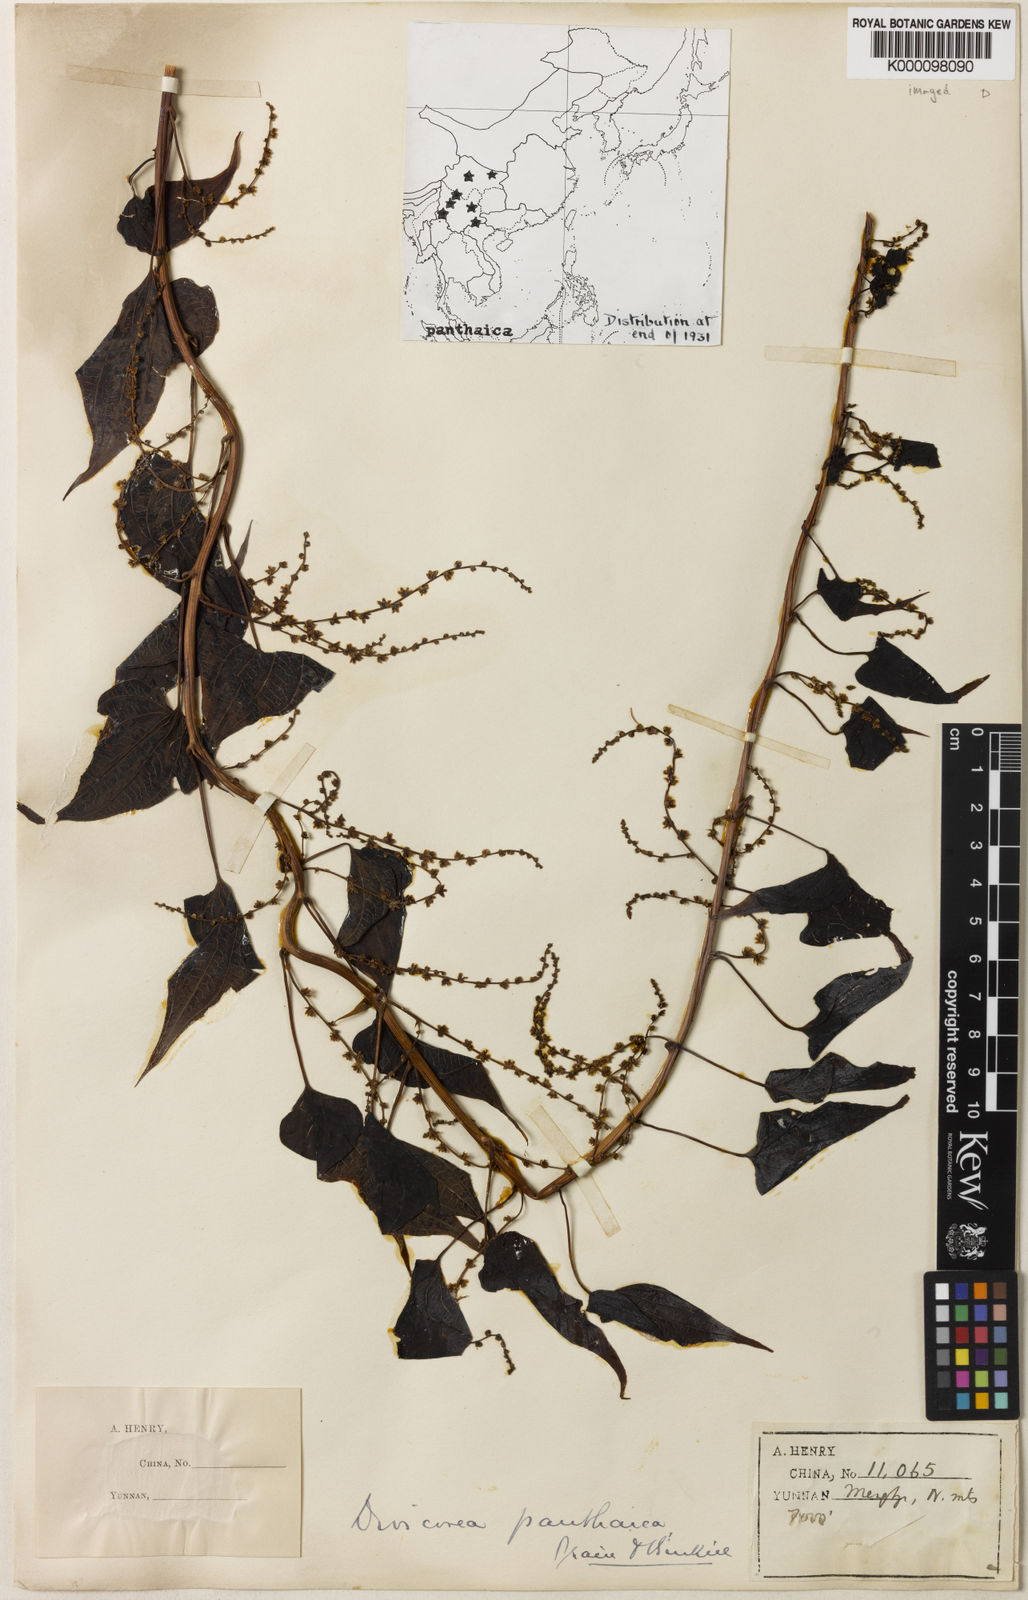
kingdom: Plantae
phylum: Tracheophyta
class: Liliopsida
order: Dioscoreales
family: Dioscoreaceae
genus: Dioscorea
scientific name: Dioscorea panthaica
